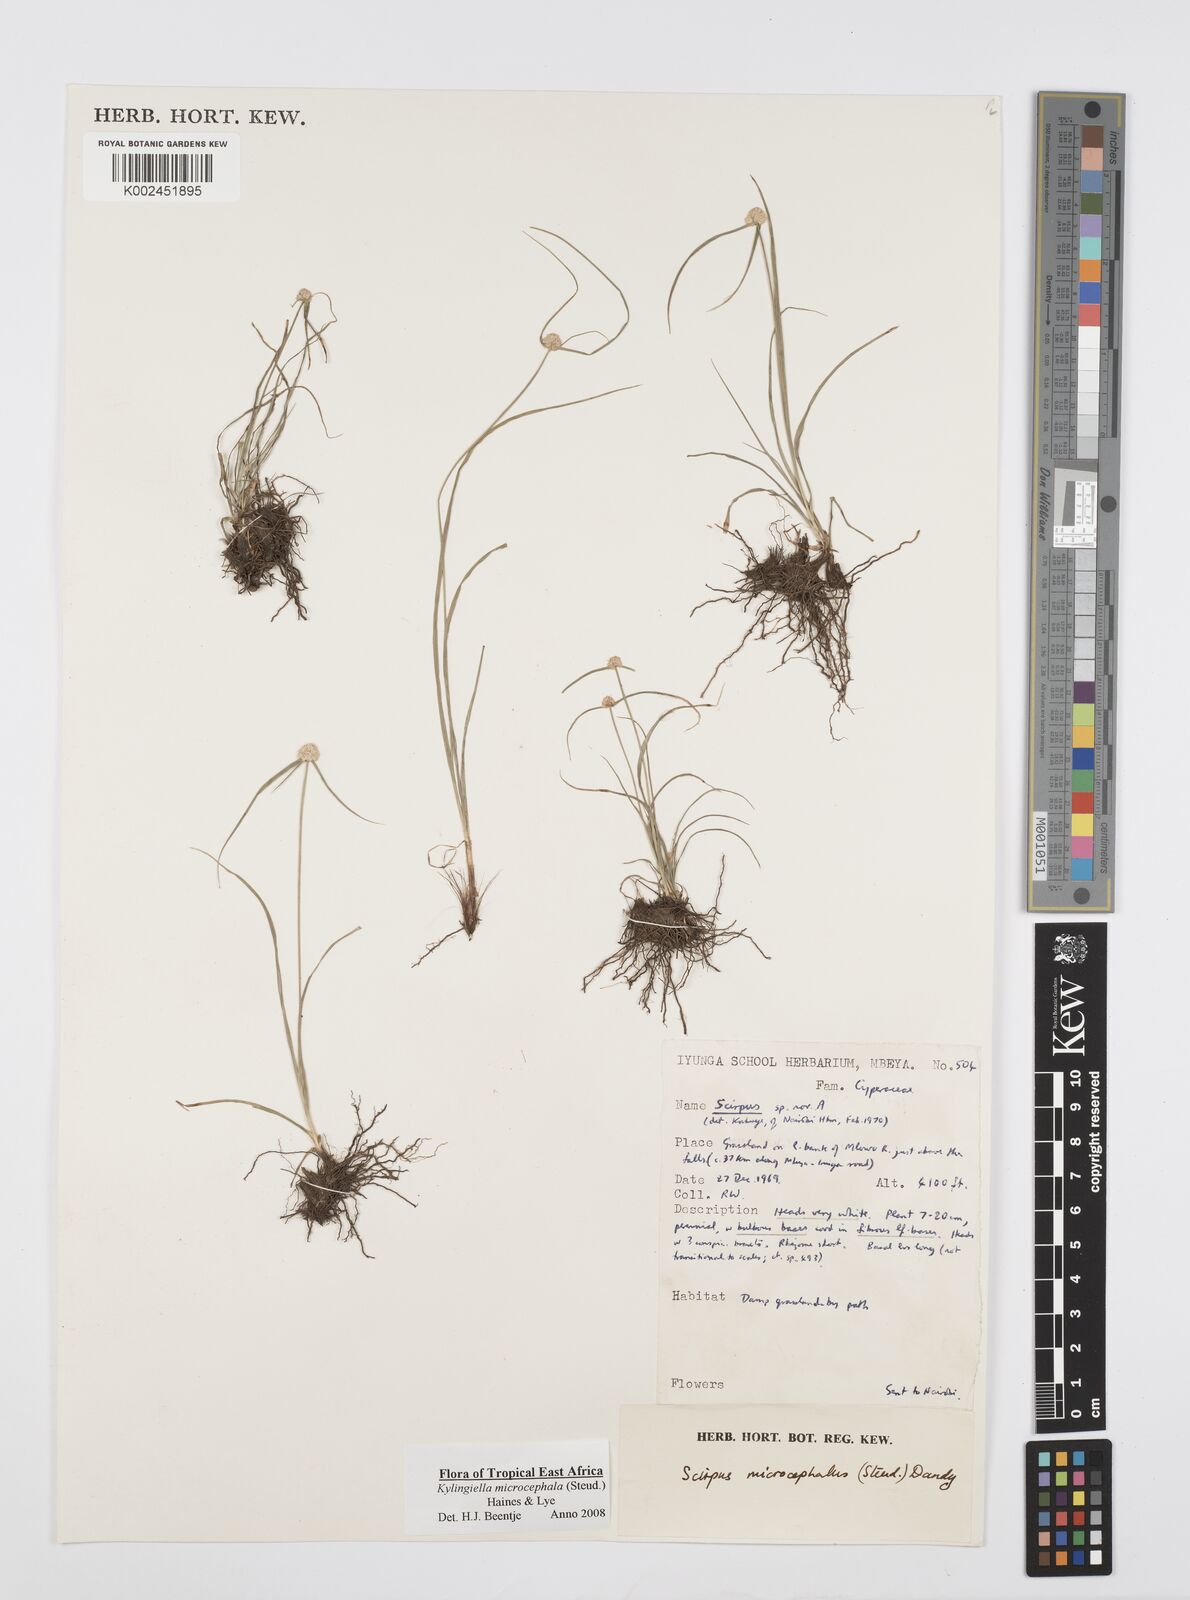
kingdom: Plantae
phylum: Tracheophyta
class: Liliopsida
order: Poales
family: Cyperaceae
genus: Cyperus
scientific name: Cyperus microcephalus
